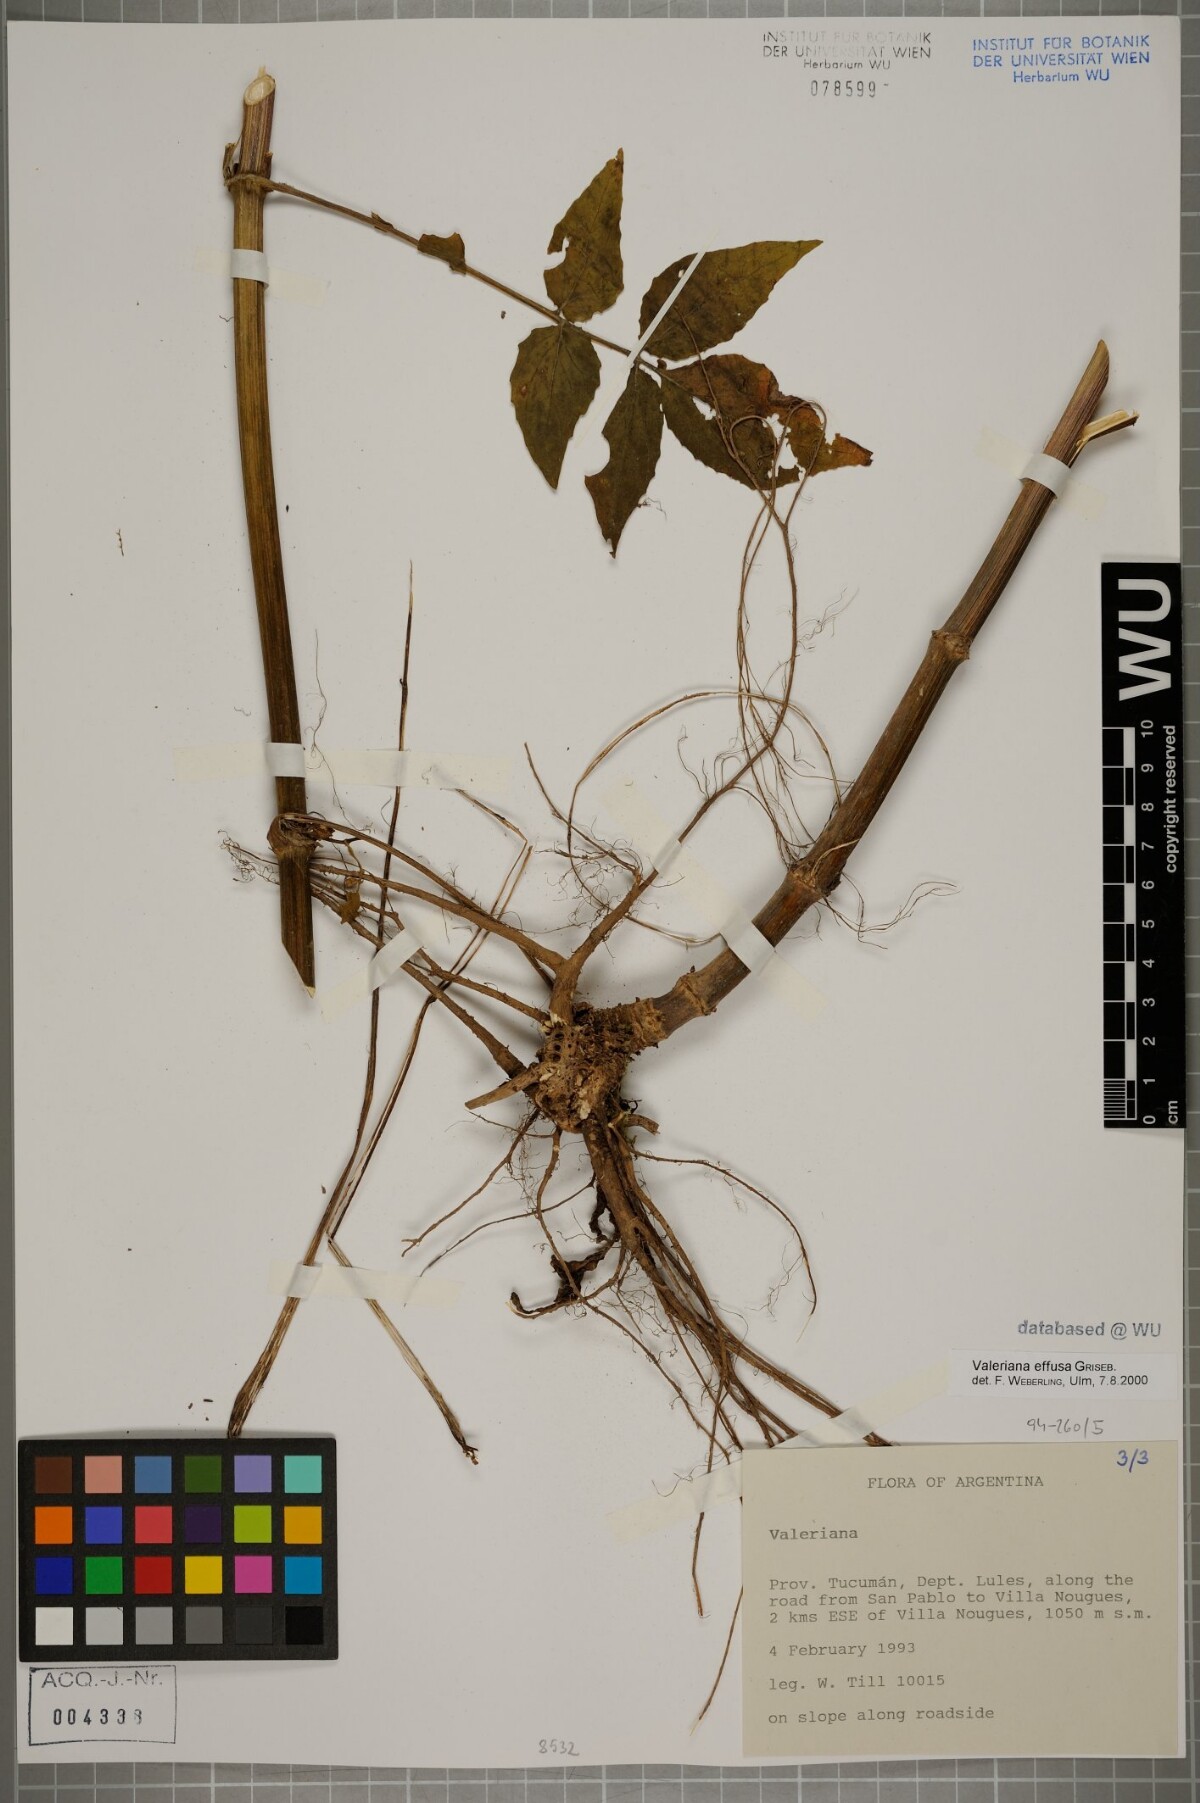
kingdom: Plantae
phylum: Tracheophyta
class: Magnoliopsida
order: Dipsacales
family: Caprifoliaceae
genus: Valeriana
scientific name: Valeriana effusa
